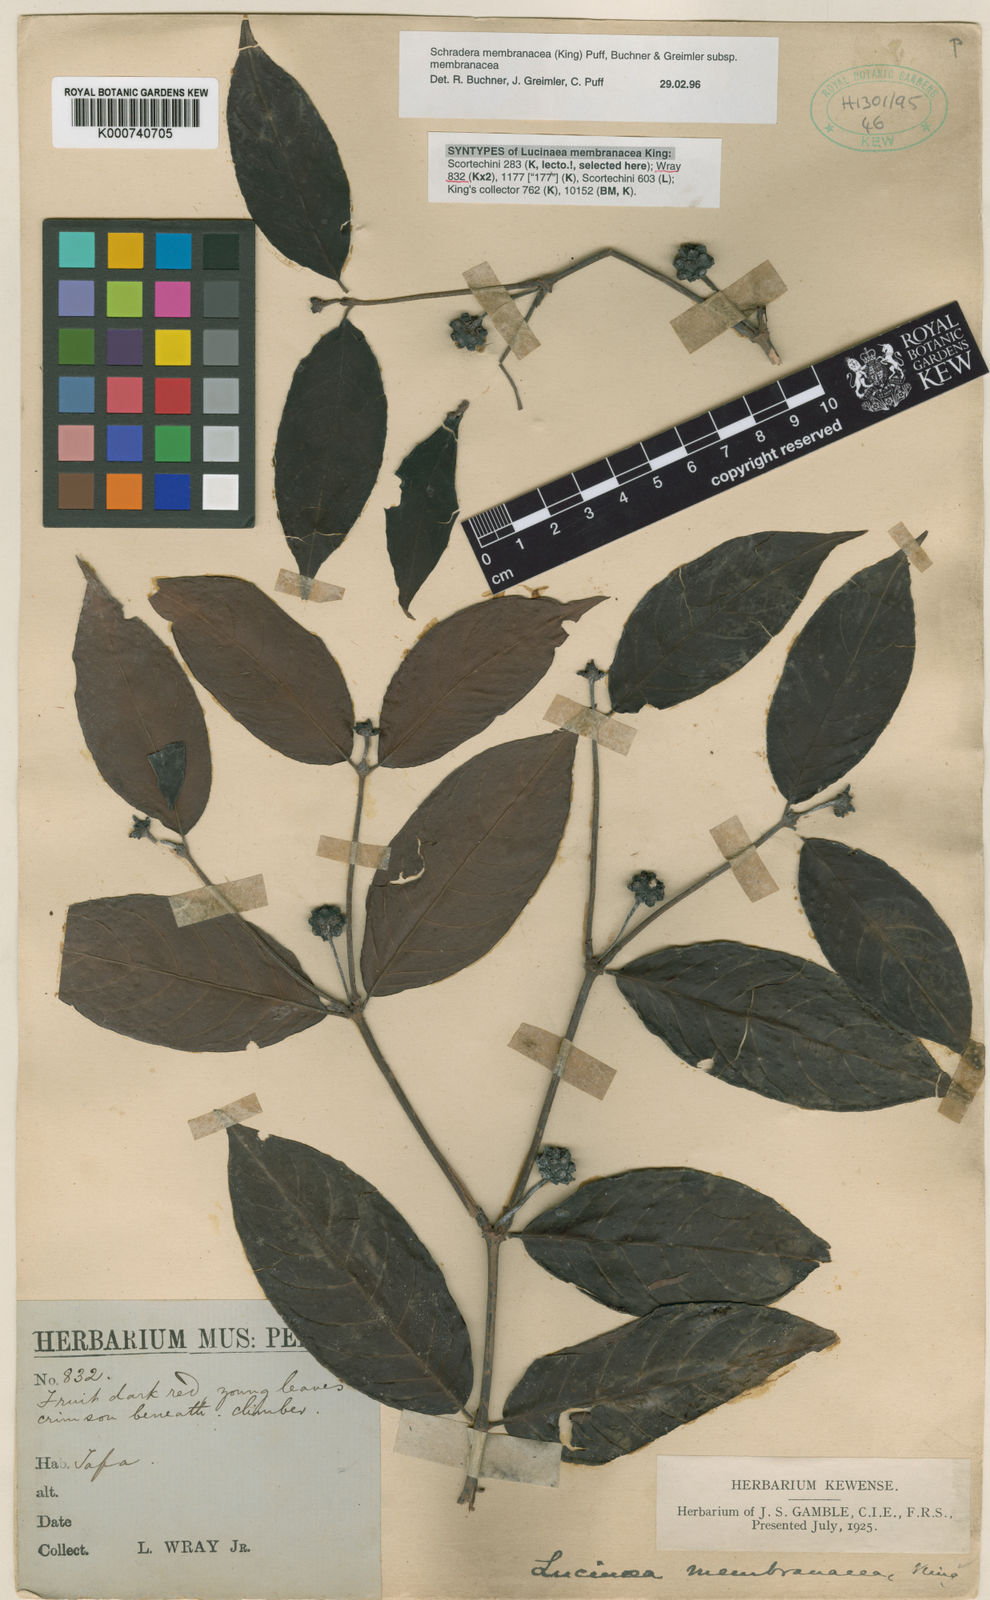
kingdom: Plantae
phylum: Tracheophyta
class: Magnoliopsida
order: Gentianales
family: Rubiaceae
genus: Schradera
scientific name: Schradera membranacea
